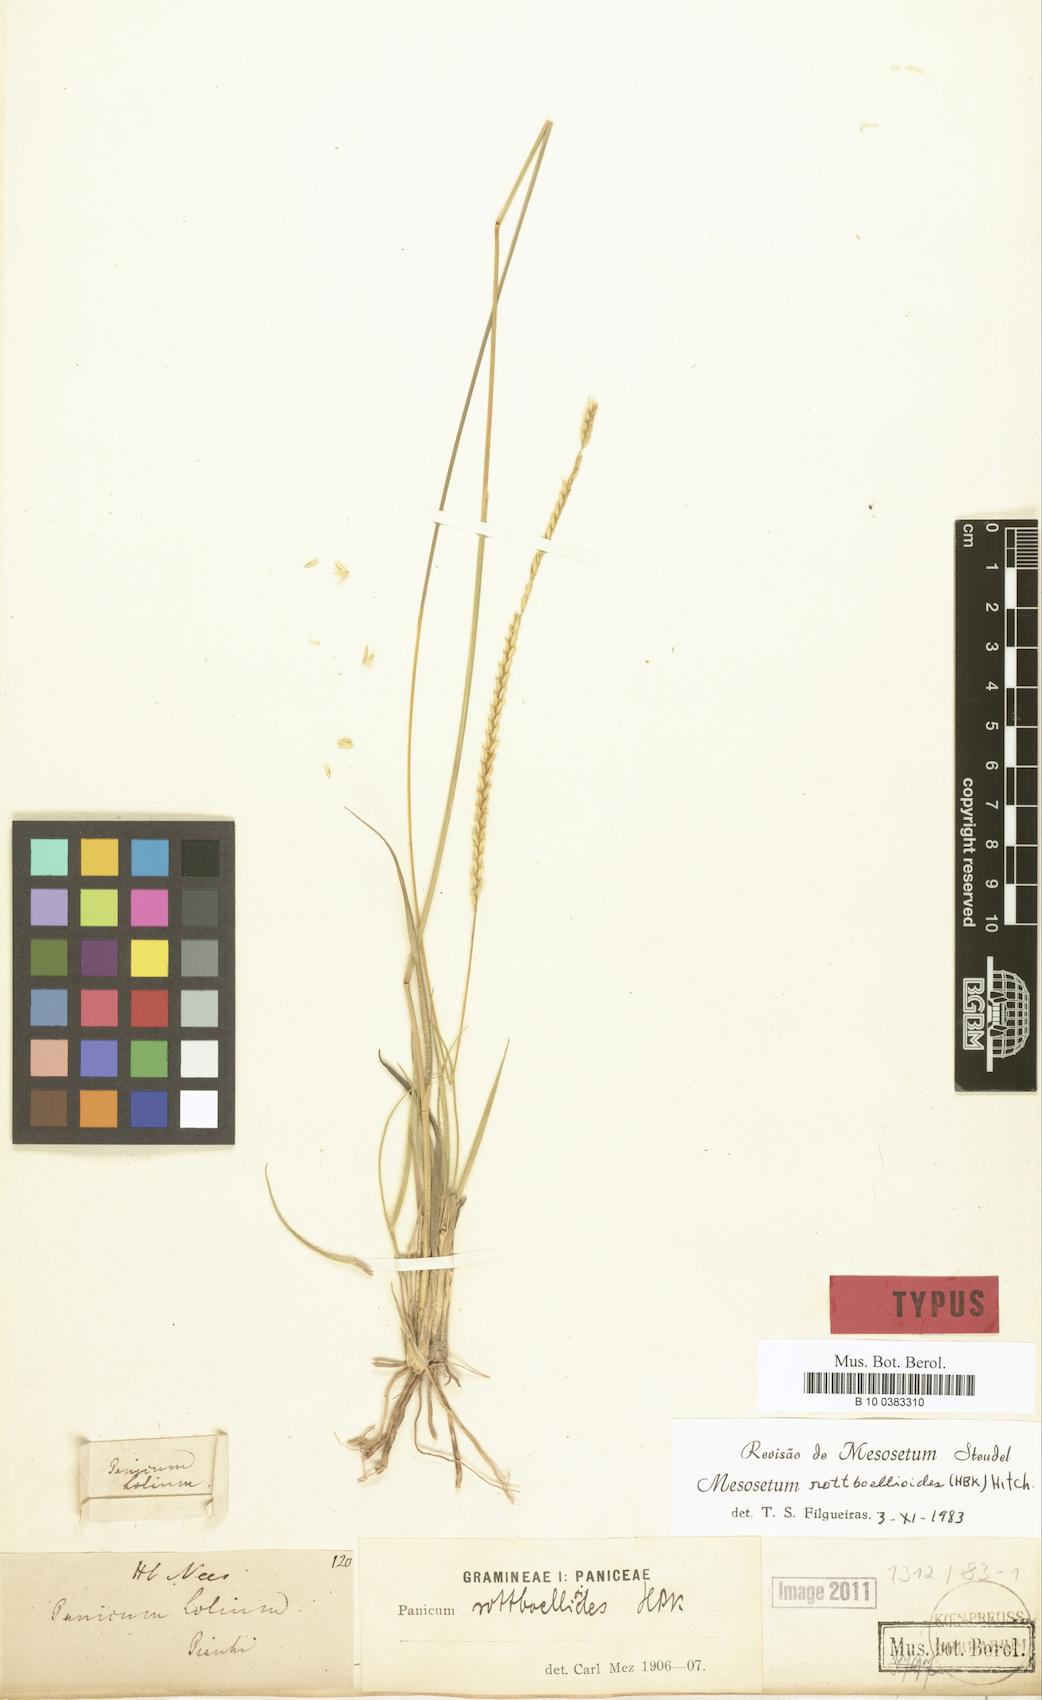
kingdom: Plantae
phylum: Tracheophyta
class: Liliopsida
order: Poales
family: Poaceae
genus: Mesosetum
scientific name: Mesosetum rottboellioides
